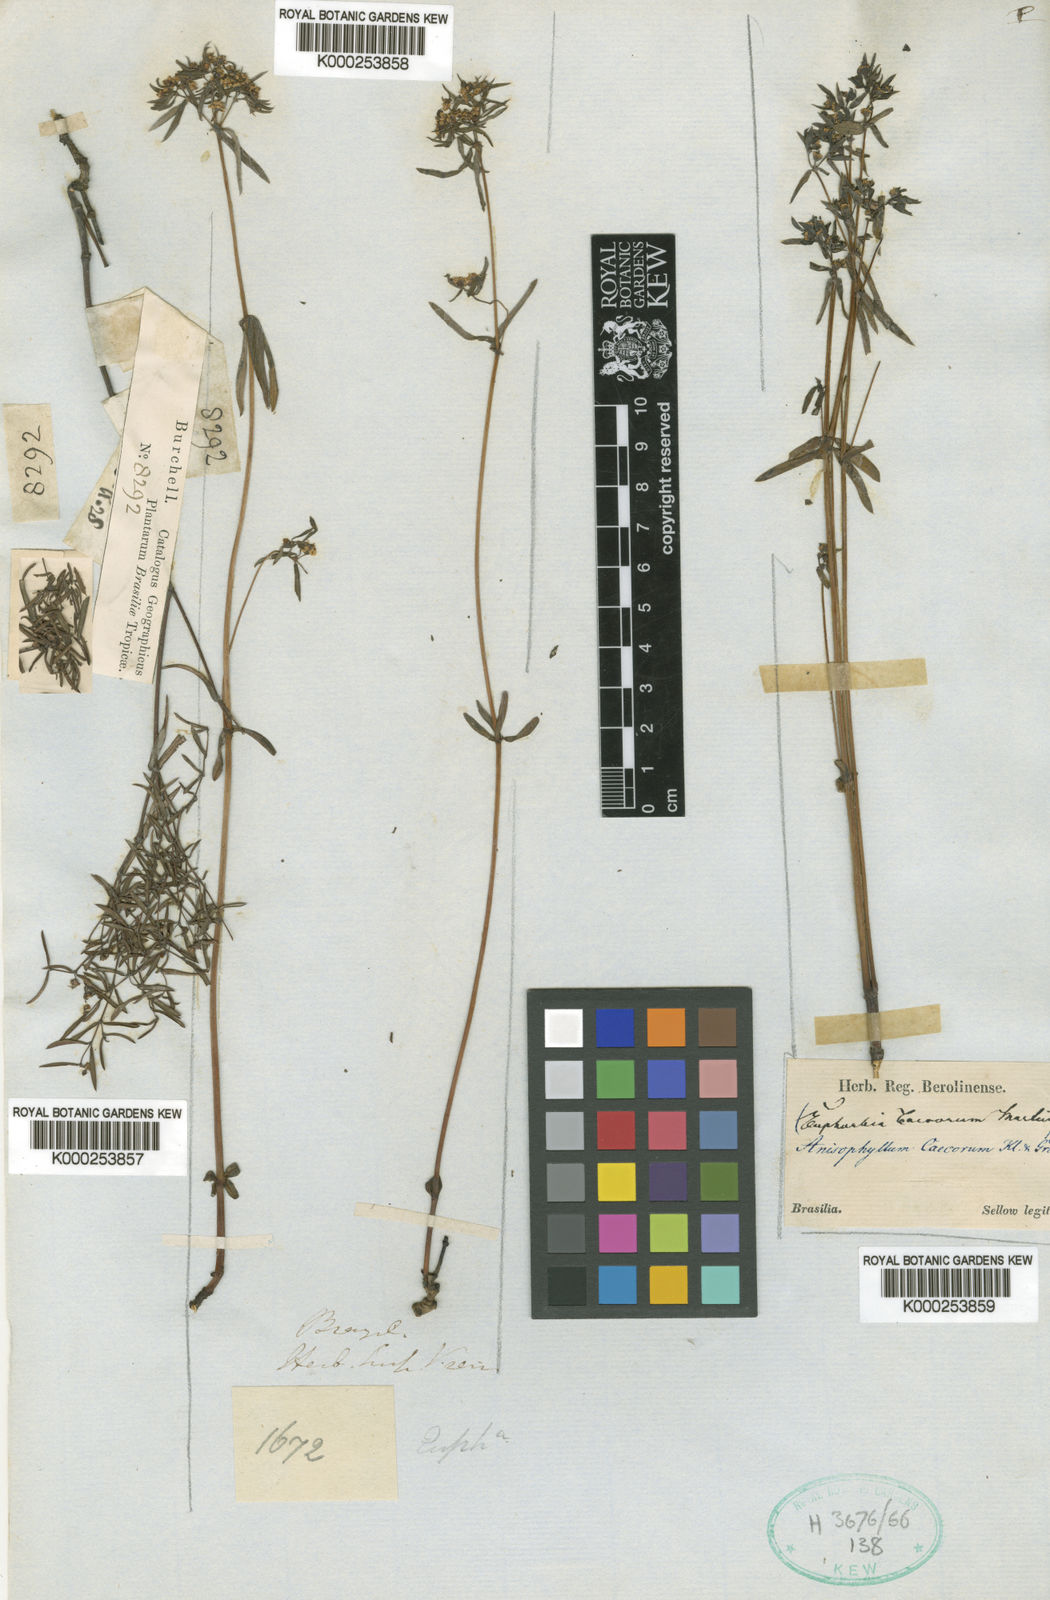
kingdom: Plantae
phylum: Tracheophyta
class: Magnoliopsida
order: Malpighiales
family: Euphorbiaceae
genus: Euphorbia
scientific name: Euphorbia potentilloides
